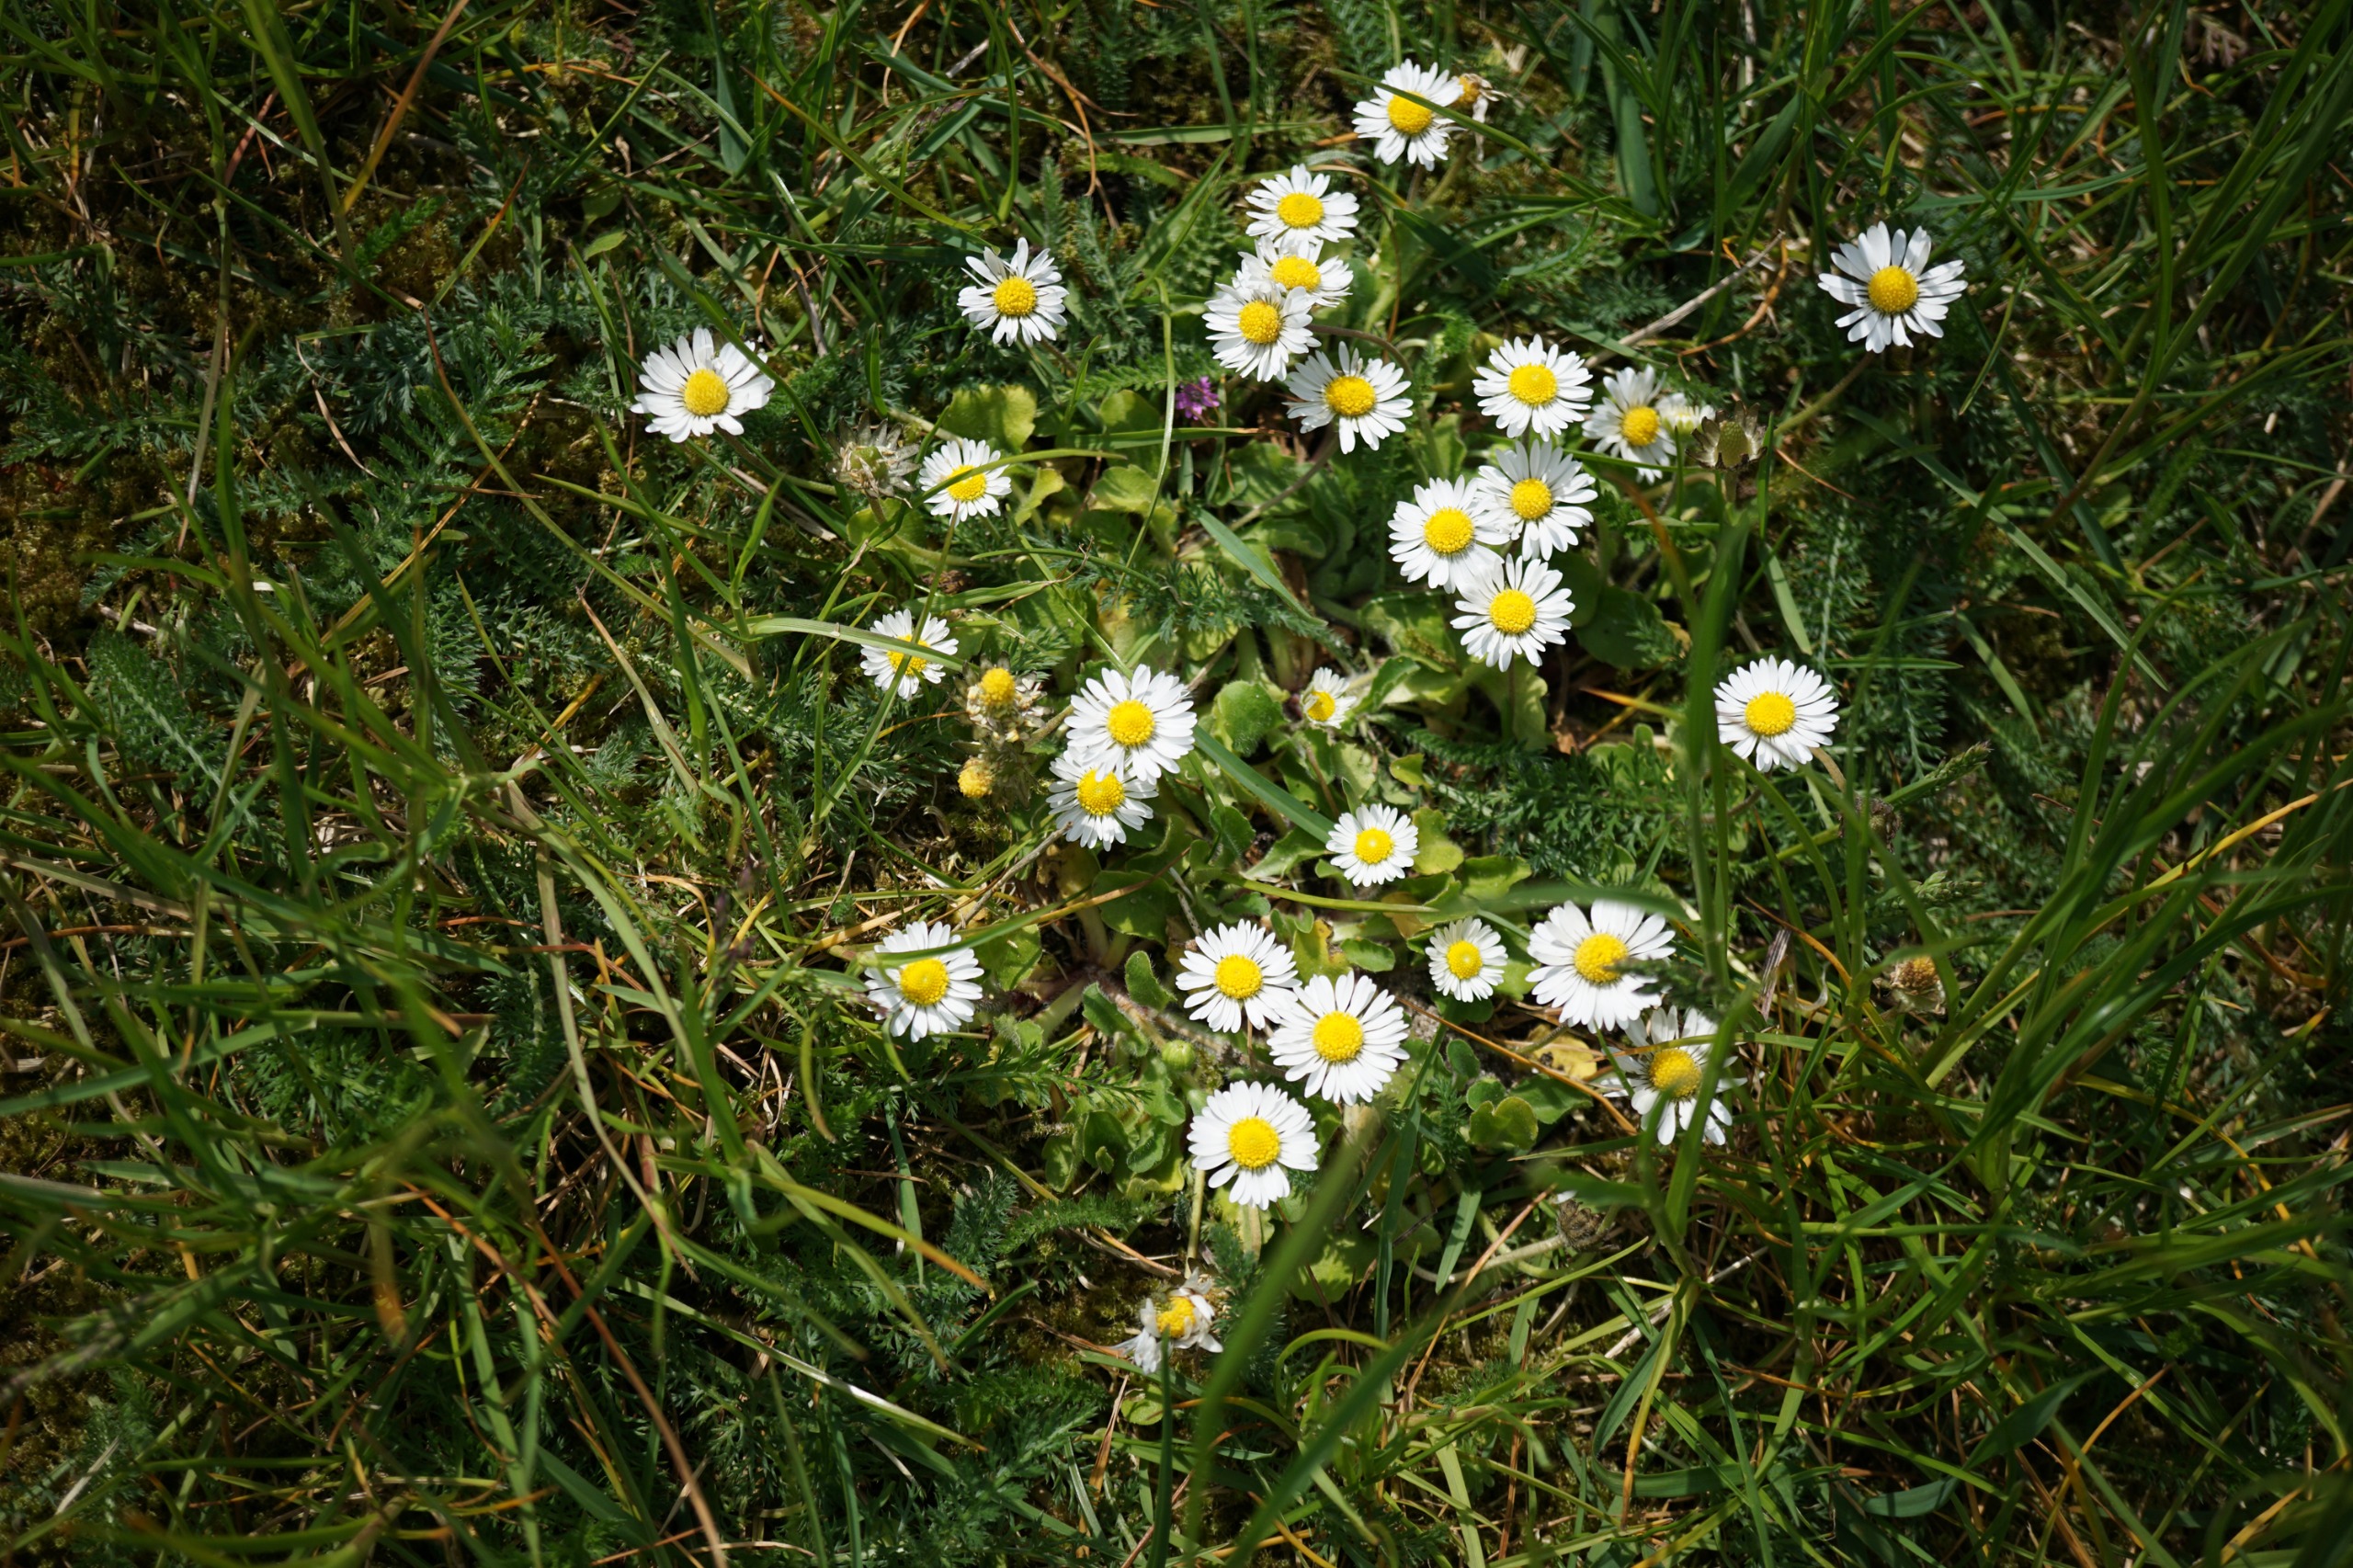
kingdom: Plantae
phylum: Tracheophyta
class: Magnoliopsida
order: Asterales
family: Asteraceae
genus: Bellis
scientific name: Bellis perennis
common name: Tusindfryd
